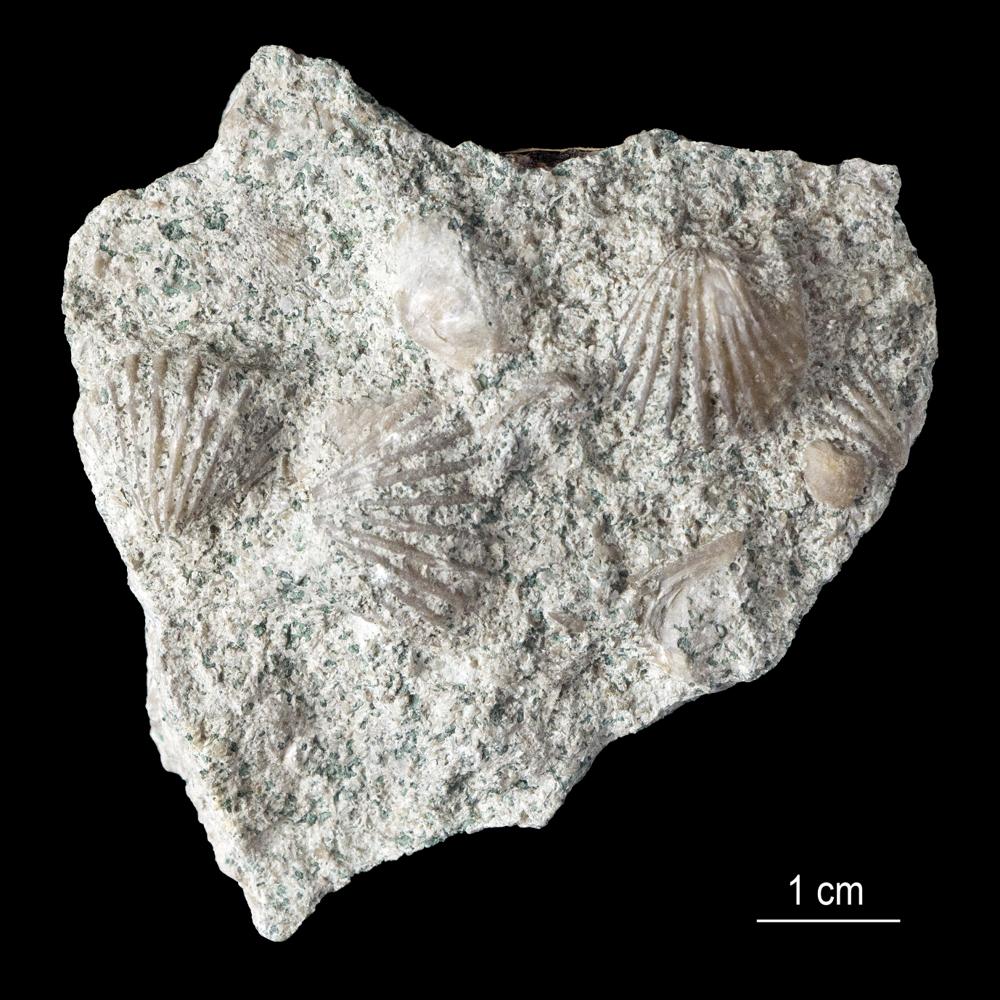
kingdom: Animalia
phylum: Brachiopoda
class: Rhynchonellata
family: Orthidae
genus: Glossorthis
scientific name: Glossorthis Orthis schmidti
